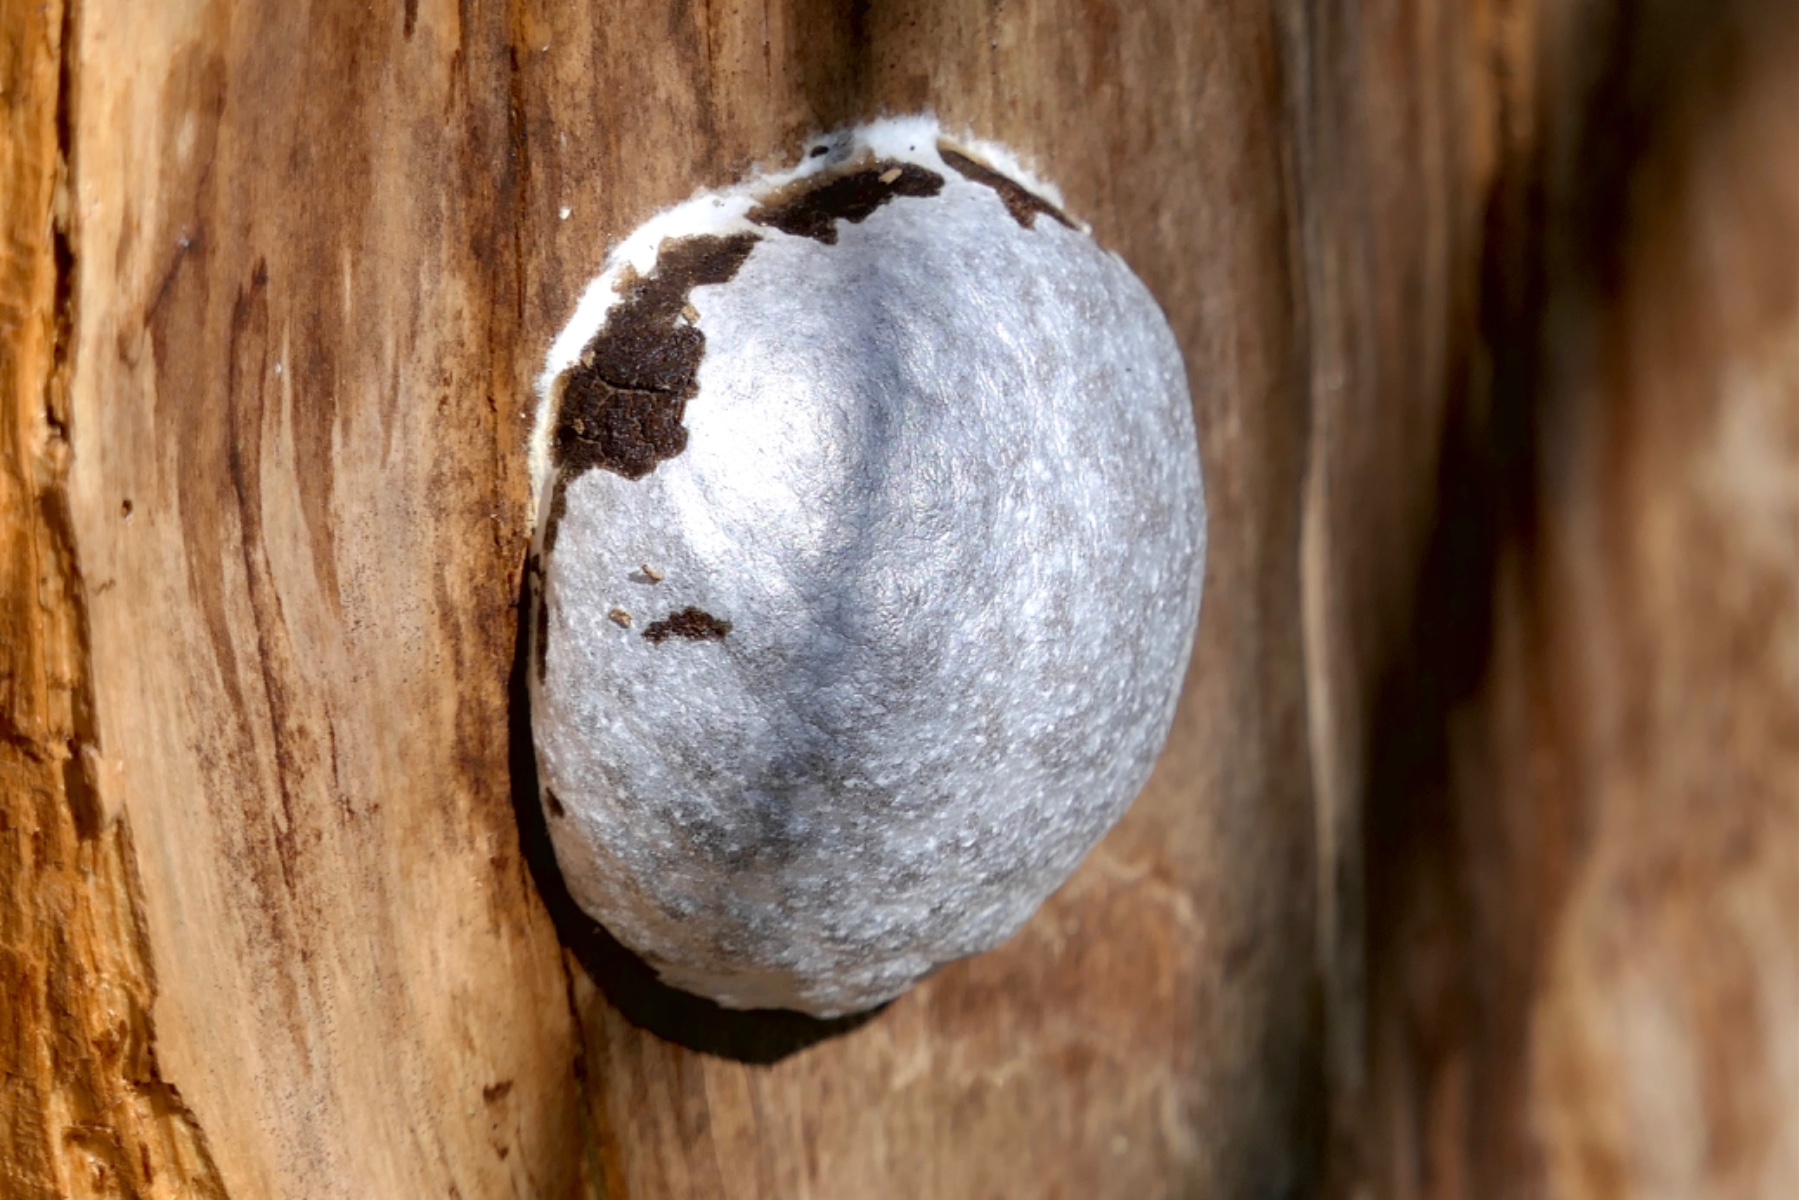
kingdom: Protozoa
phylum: Mycetozoa
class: Myxomycetes
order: Cribrariales
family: Tubiferaceae
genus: Reticularia
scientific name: Reticularia lycoperdon
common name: skinnende støvpude
